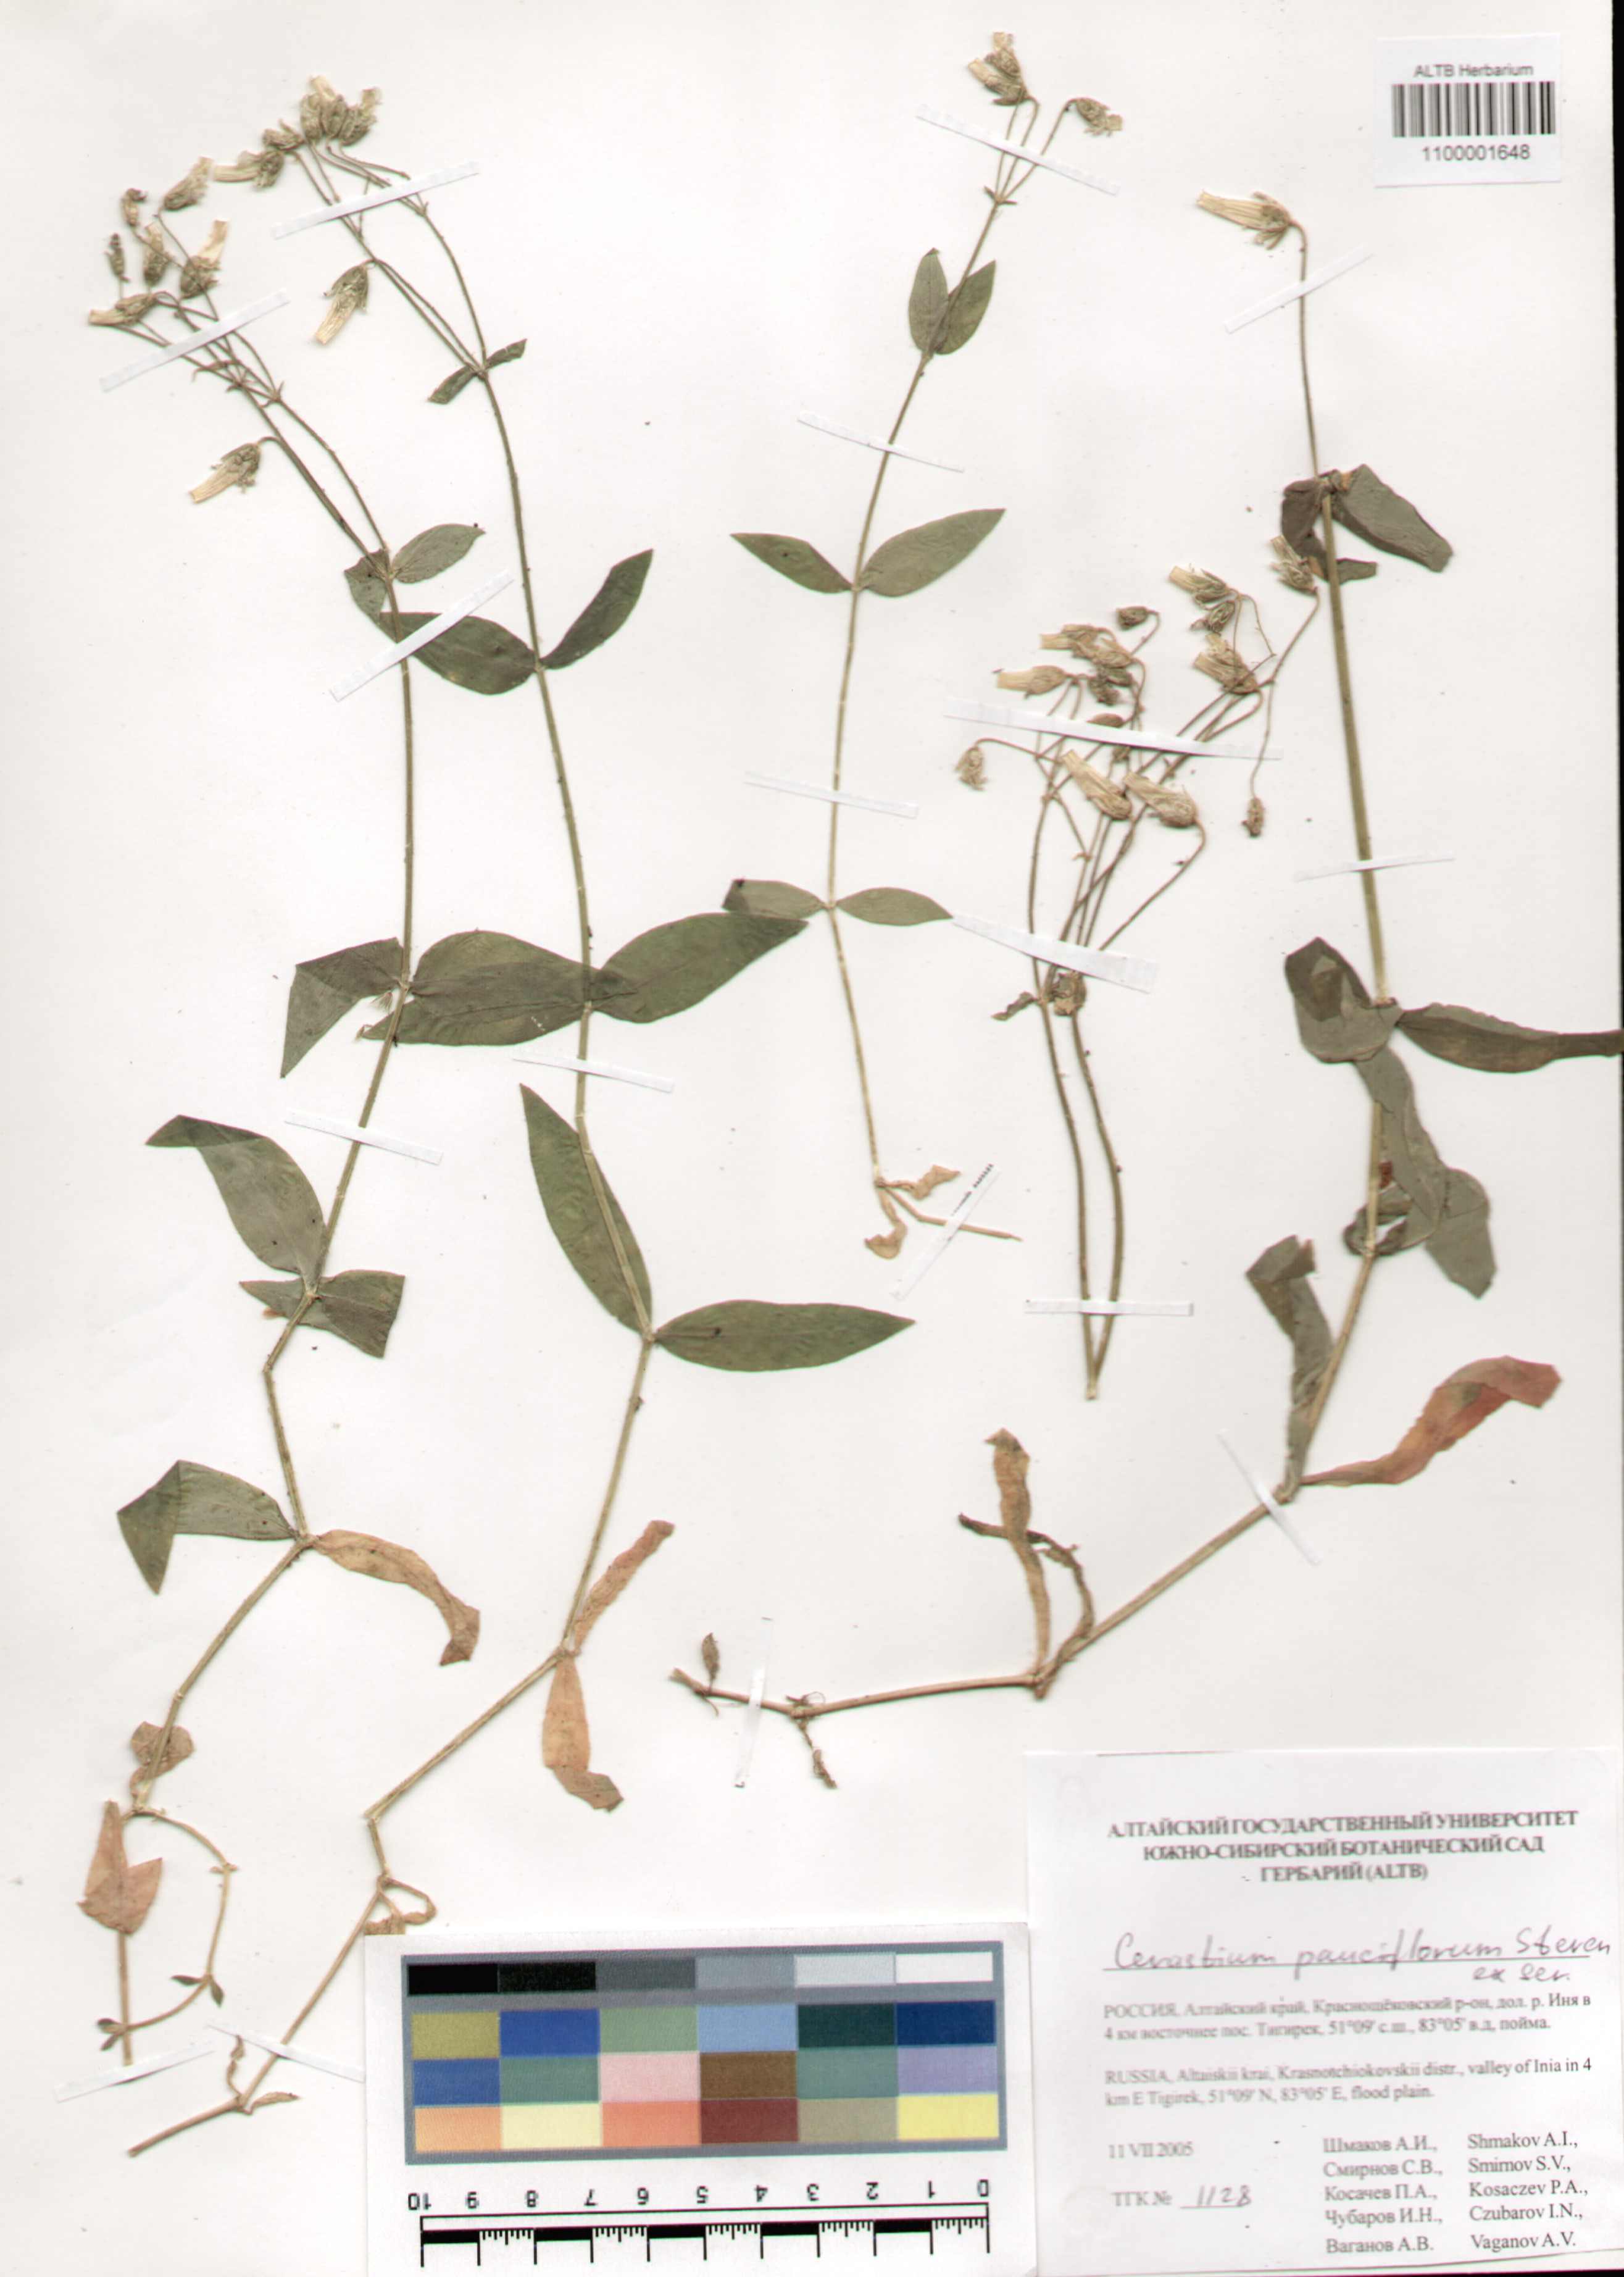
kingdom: Plantae
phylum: Tracheophyta
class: Magnoliopsida
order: Caryophyllales
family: Caryophyllaceae
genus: Cerastium
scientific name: Cerastium pauciflorum
